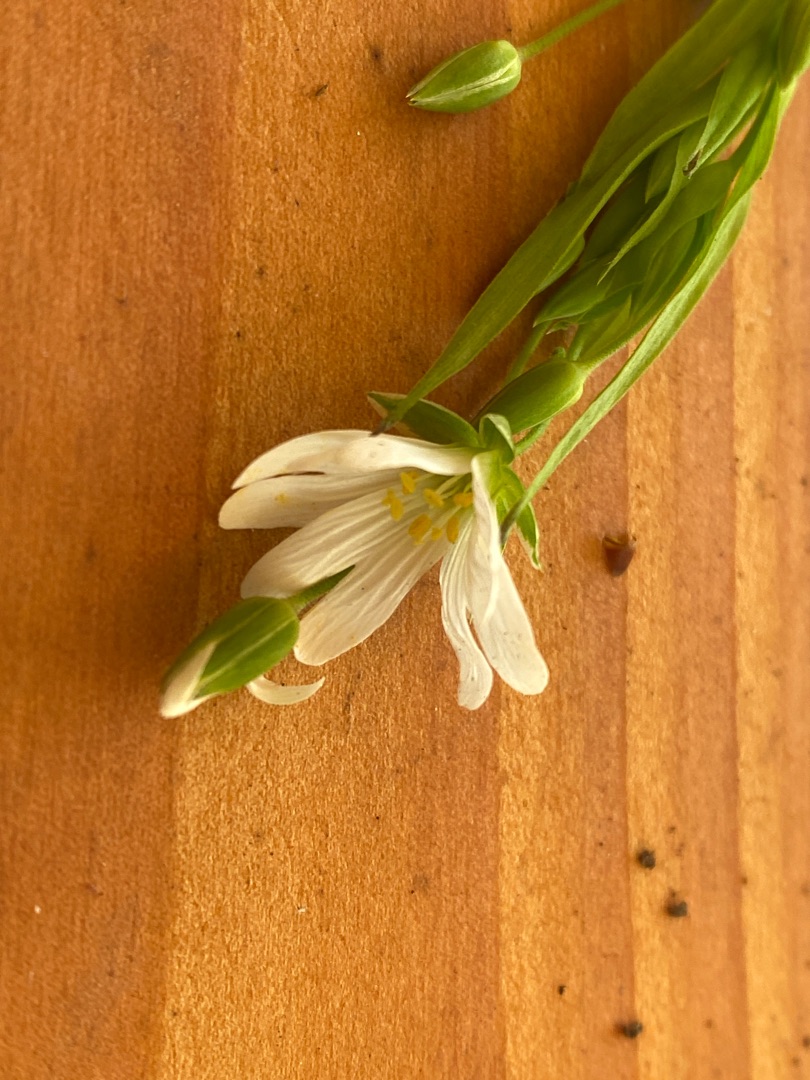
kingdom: Plantae
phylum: Tracheophyta
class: Magnoliopsida
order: Caryophyllales
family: Caryophyllaceae
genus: Rabelera
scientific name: Rabelera holostea
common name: Stor fladstjerne
